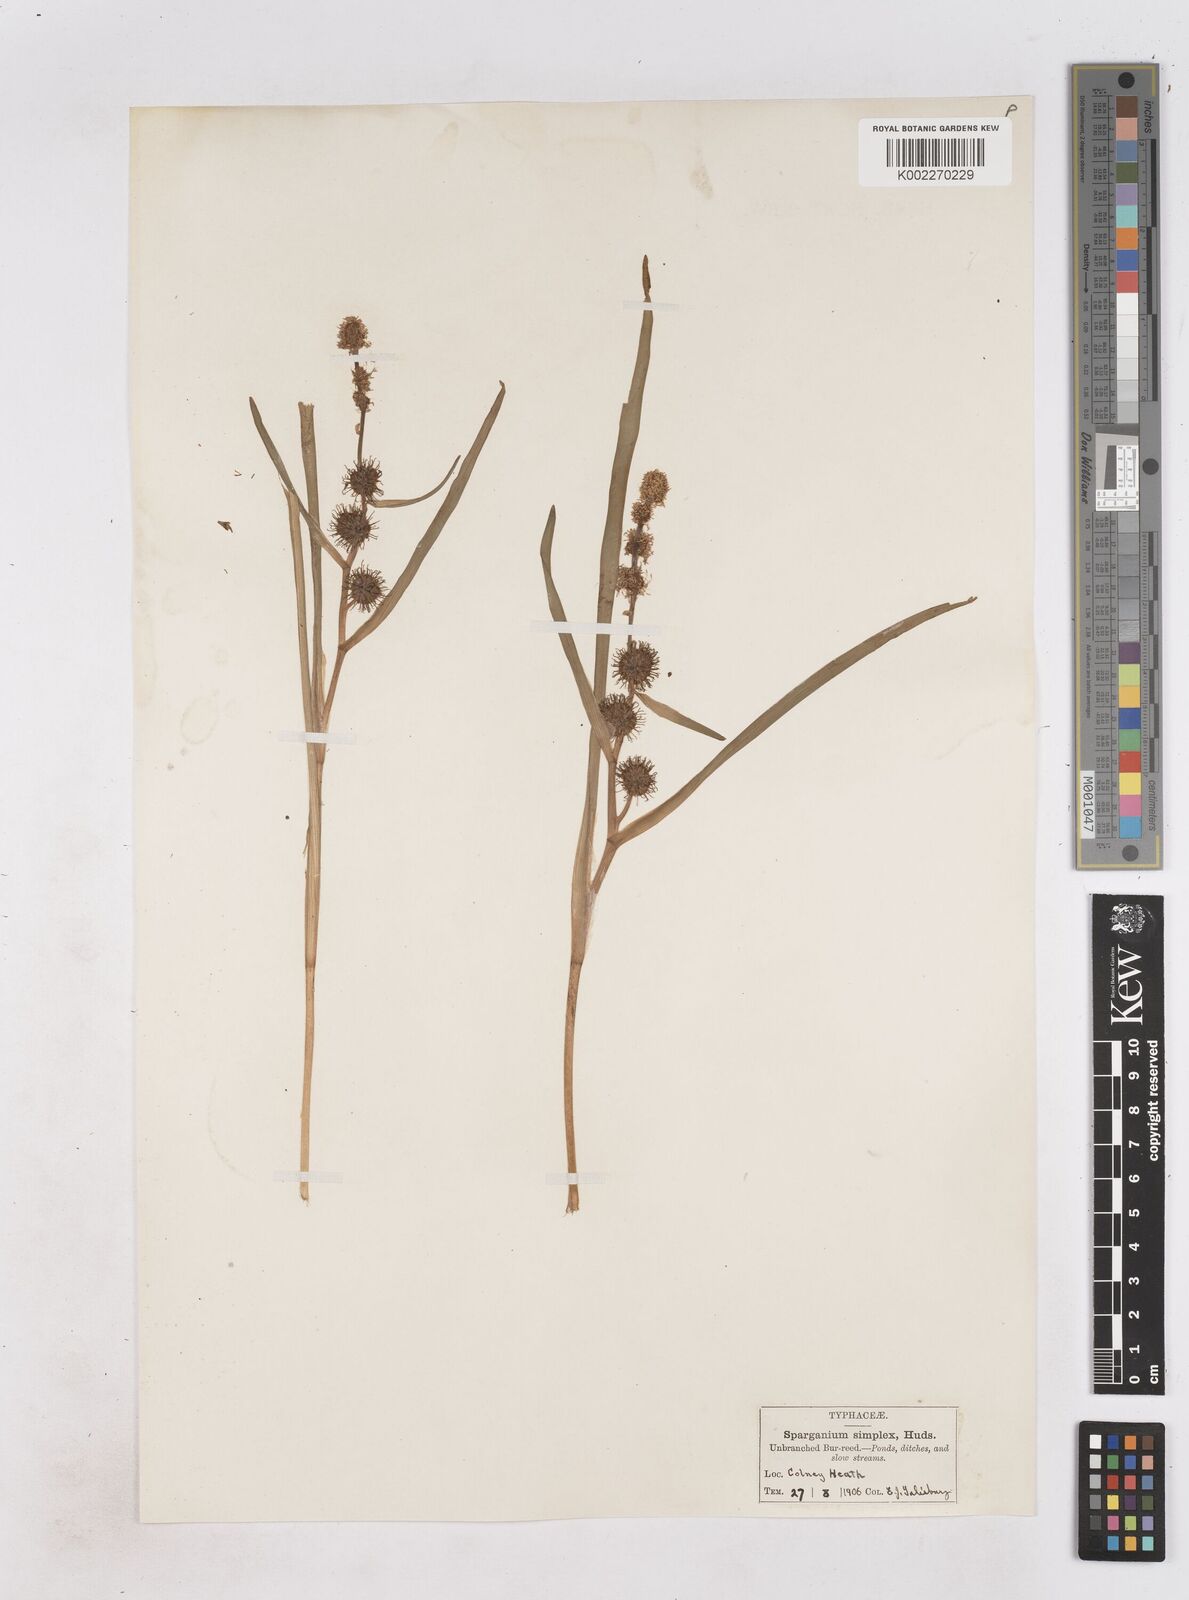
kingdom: Plantae
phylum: Tracheophyta
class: Liliopsida
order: Poales
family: Typhaceae
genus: Sparganium
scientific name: Sparganium emersum
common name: Unbranched bur-reed
